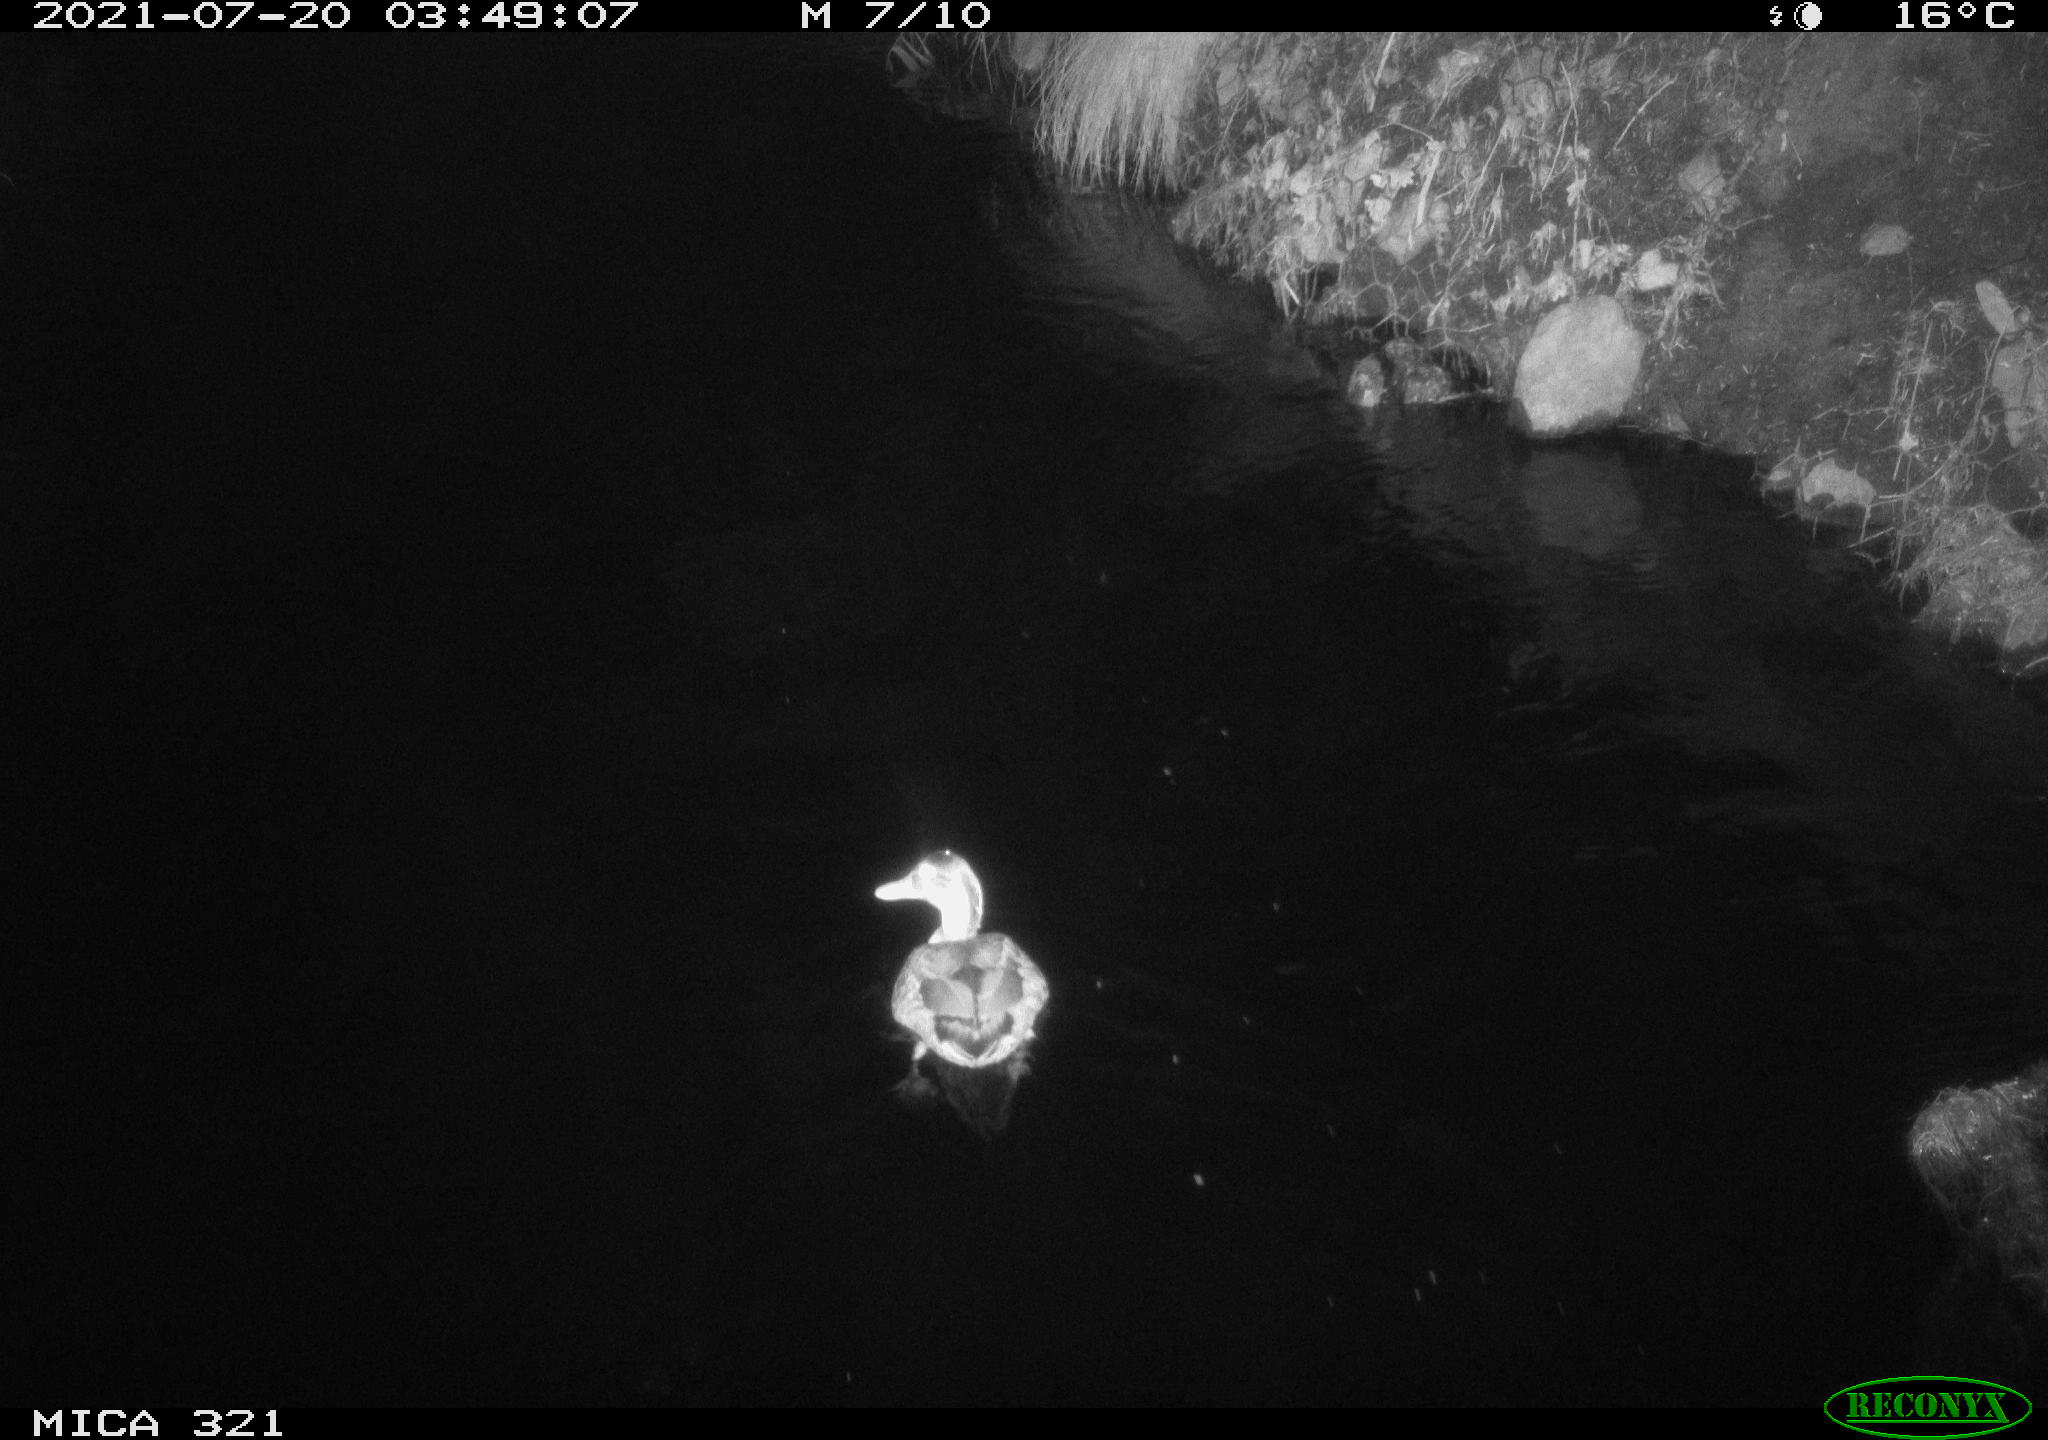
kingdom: Animalia
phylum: Chordata
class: Aves
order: Anseriformes
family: Anatidae
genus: Anas
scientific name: Anas platyrhynchos
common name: Mallard
